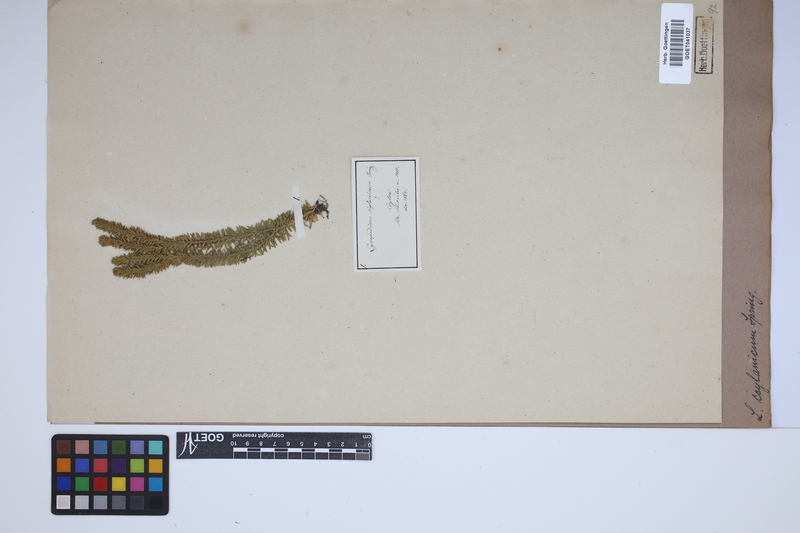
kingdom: Plantae
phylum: Tracheophyta
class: Lycopodiopsida
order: Lycopodiales
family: Lycopodiaceae
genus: Phlegmariurus
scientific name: Phlegmariurus vernicosus
